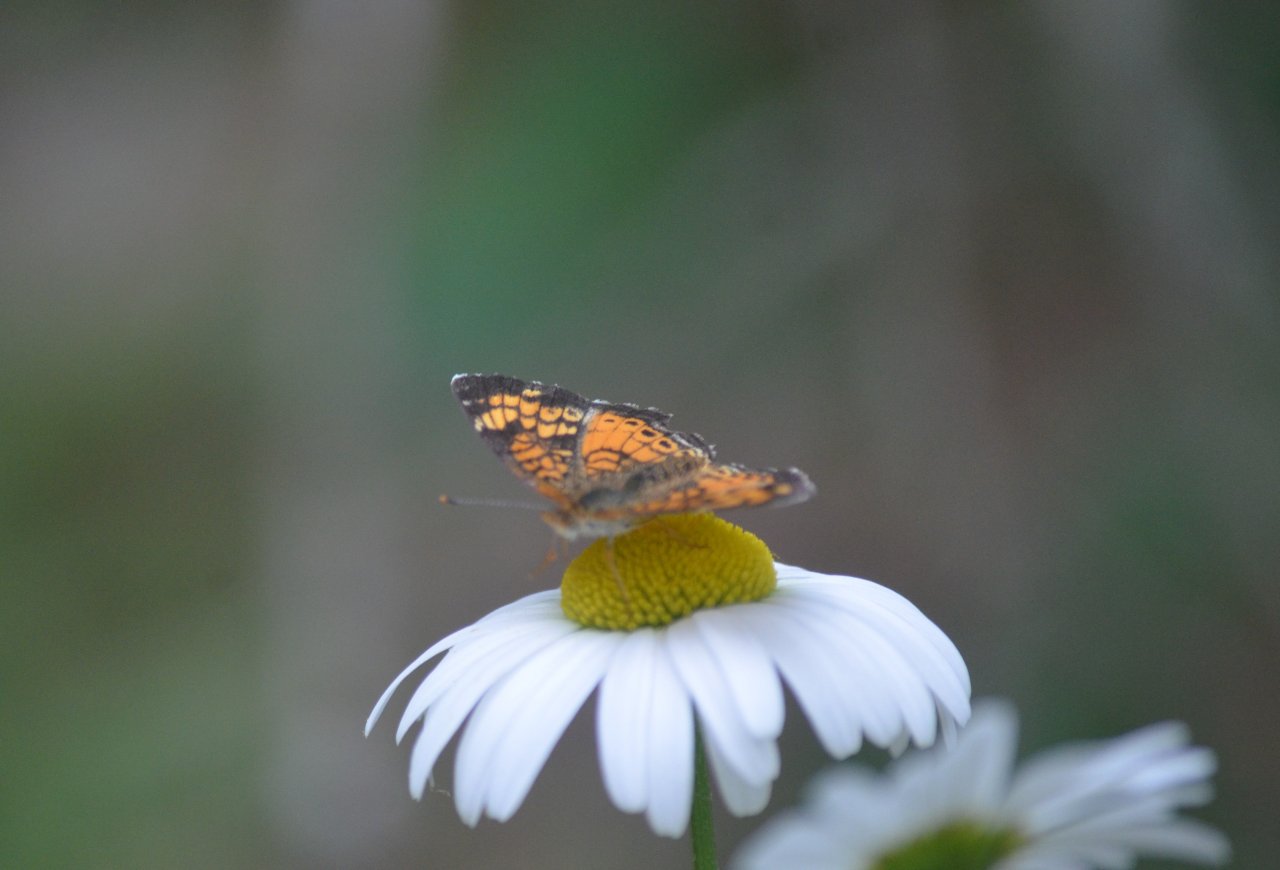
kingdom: Animalia
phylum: Arthropoda
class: Insecta
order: Lepidoptera
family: Nymphalidae
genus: Phyciodes
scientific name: Phyciodes
